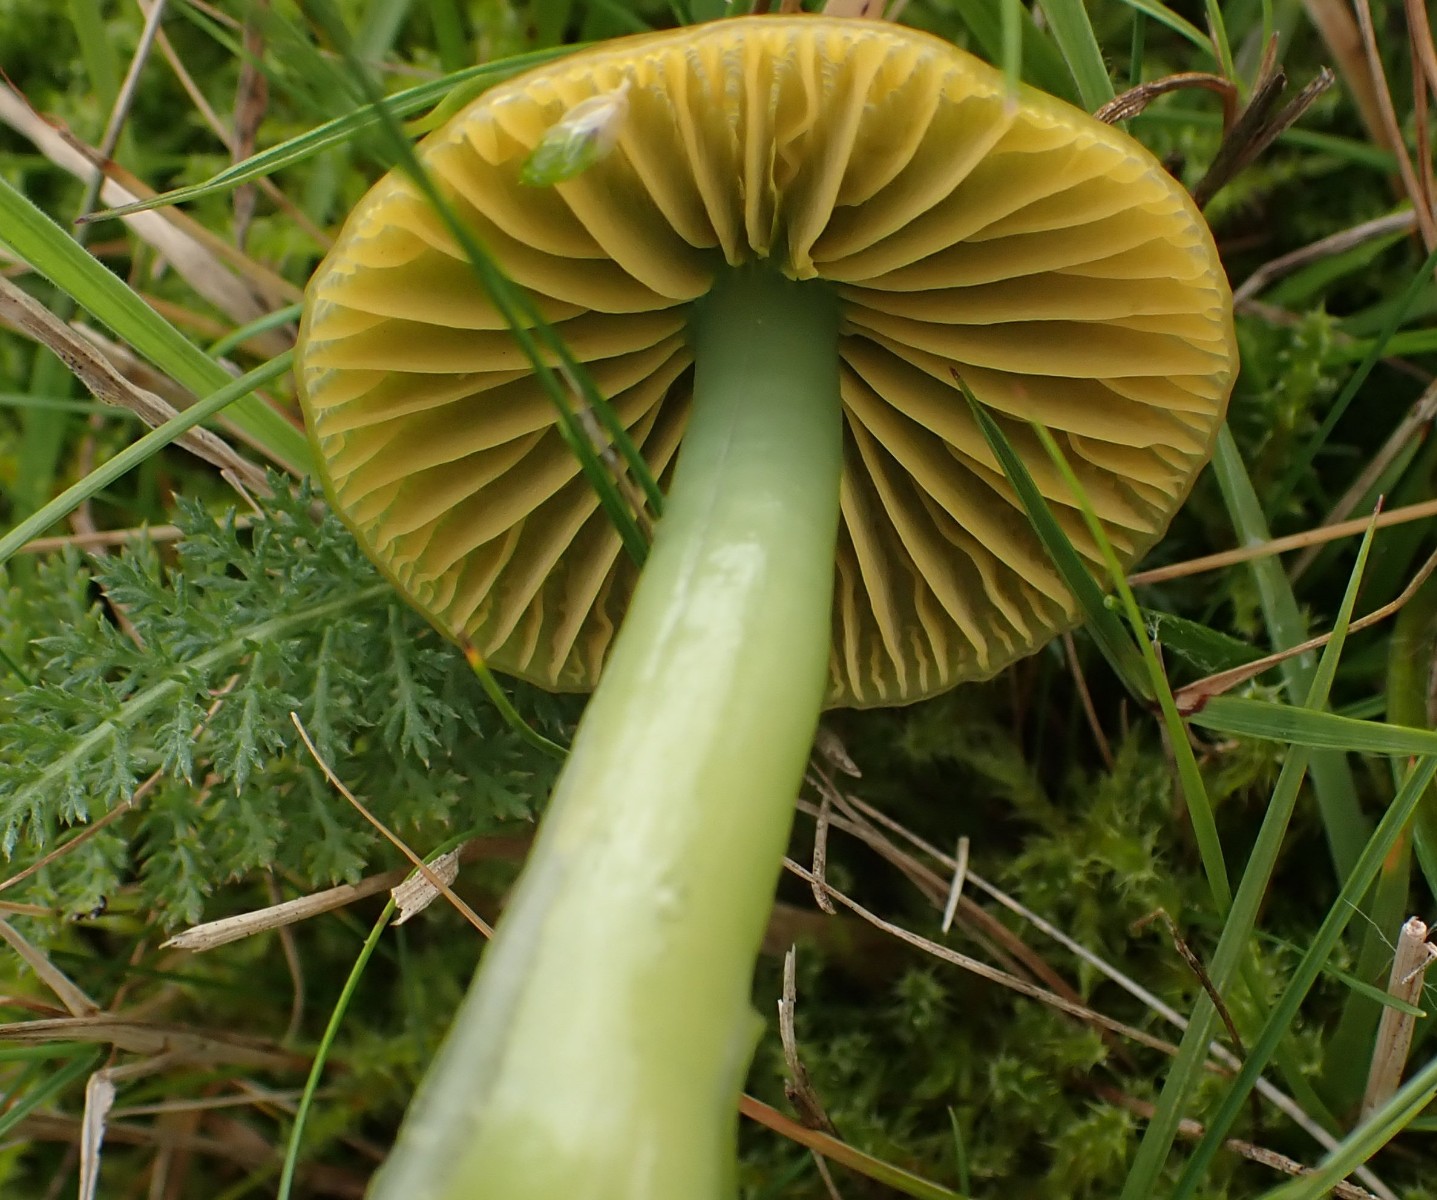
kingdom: Fungi
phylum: Basidiomycota
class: Agaricomycetes
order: Agaricales
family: Hygrophoraceae
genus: Gliophorus
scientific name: Gliophorus psittacinus
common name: papegøje-vokshat
